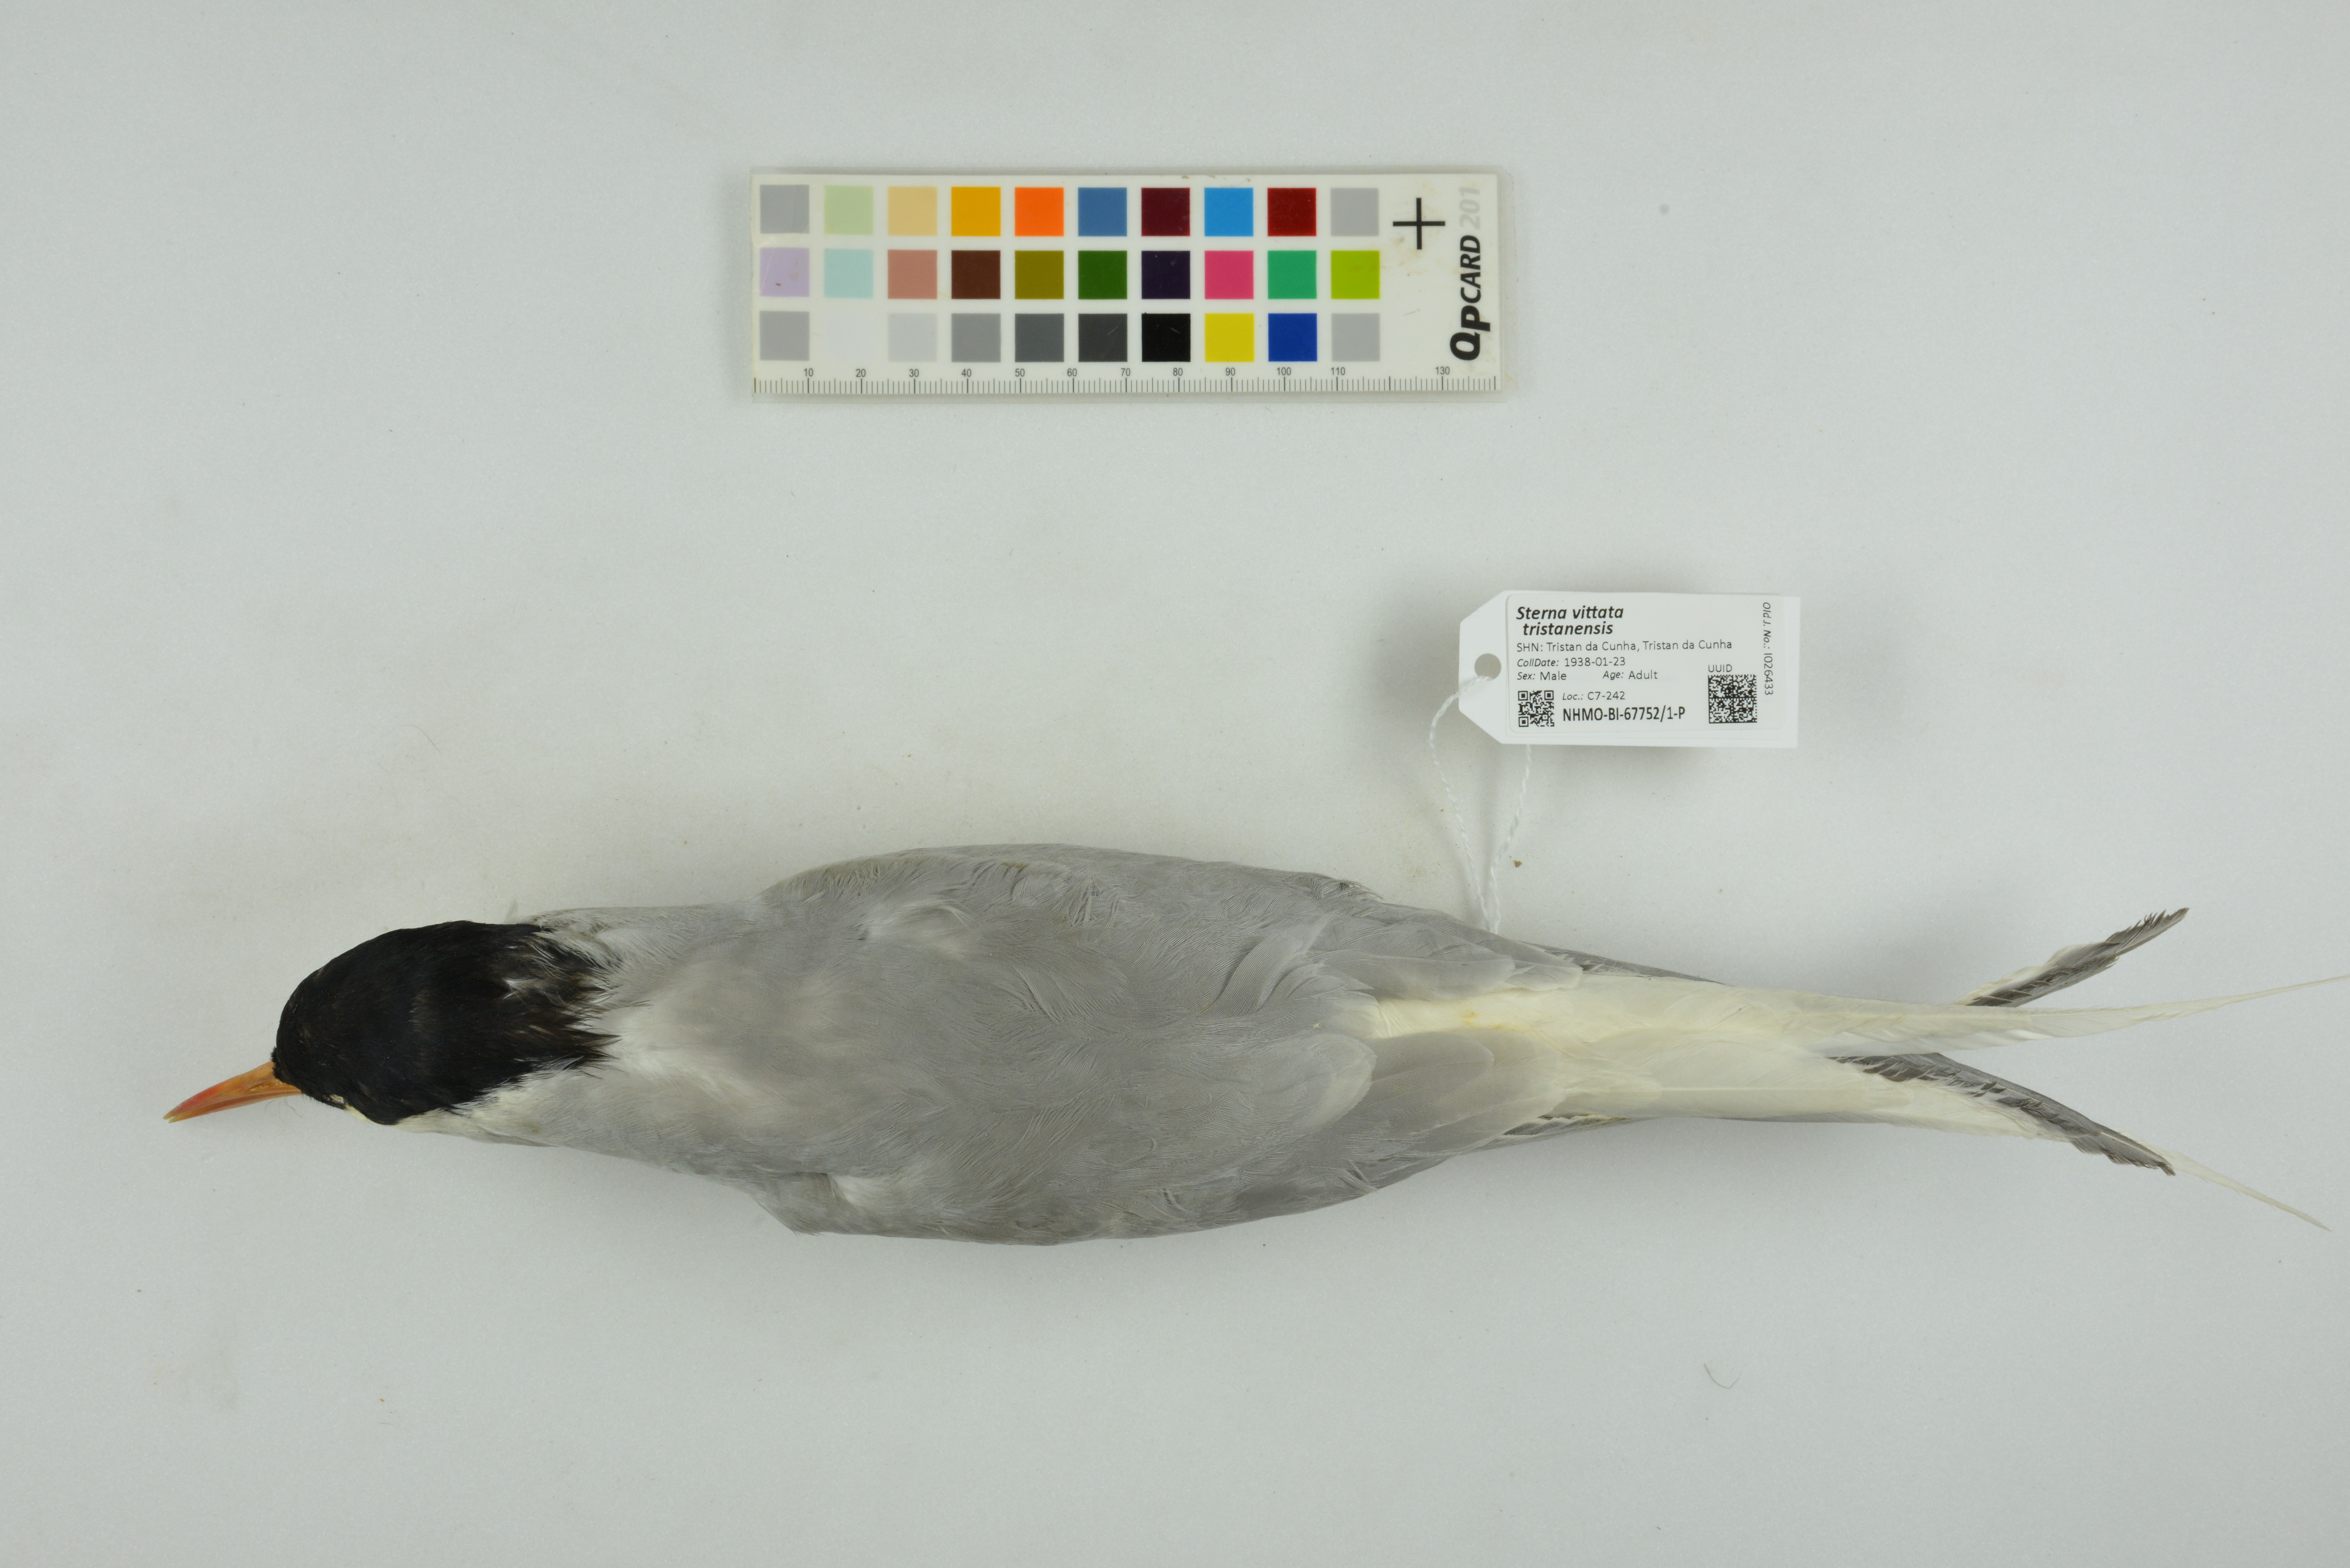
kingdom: Animalia
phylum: Chordata
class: Aves
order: Charadriiformes
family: Laridae
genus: Sterna
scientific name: Sterna vittata
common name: Antarctic tern
